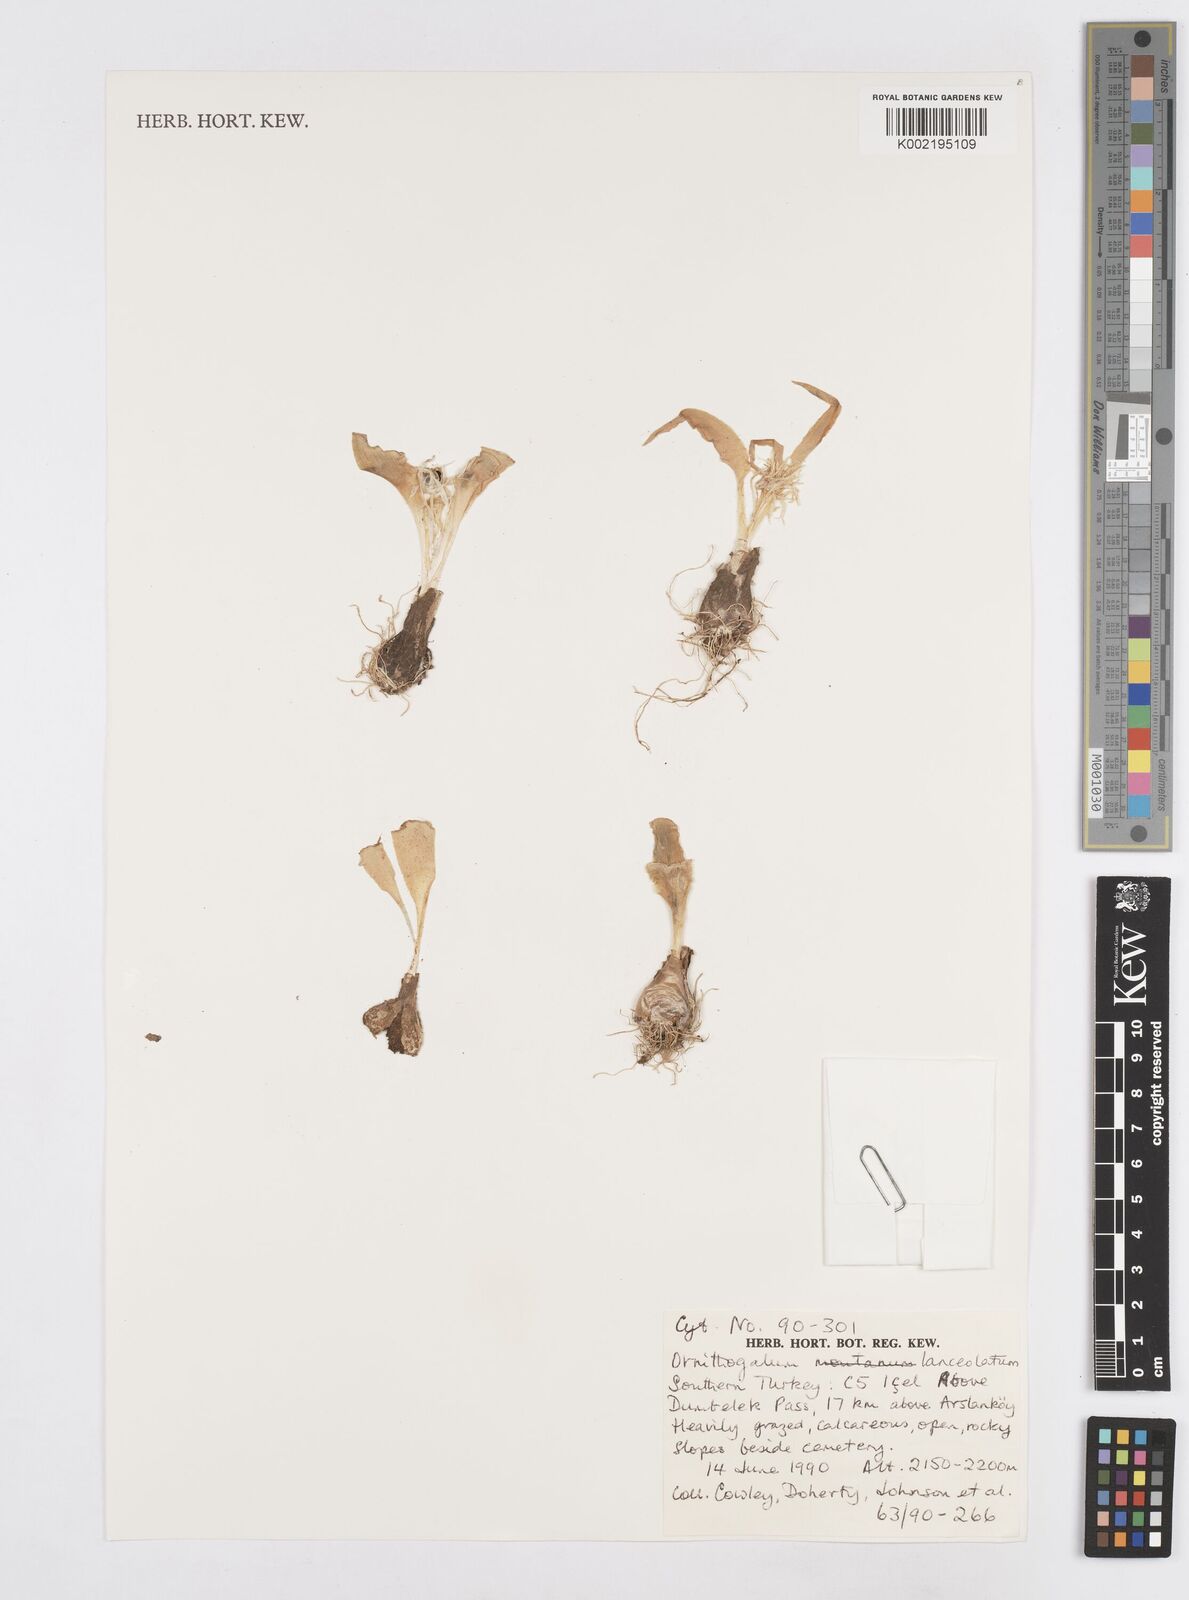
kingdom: Plantae
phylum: Tracheophyta
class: Liliopsida
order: Asparagales
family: Asparagaceae
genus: Ornithogalum
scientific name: Ornithogalum lanceolatum
